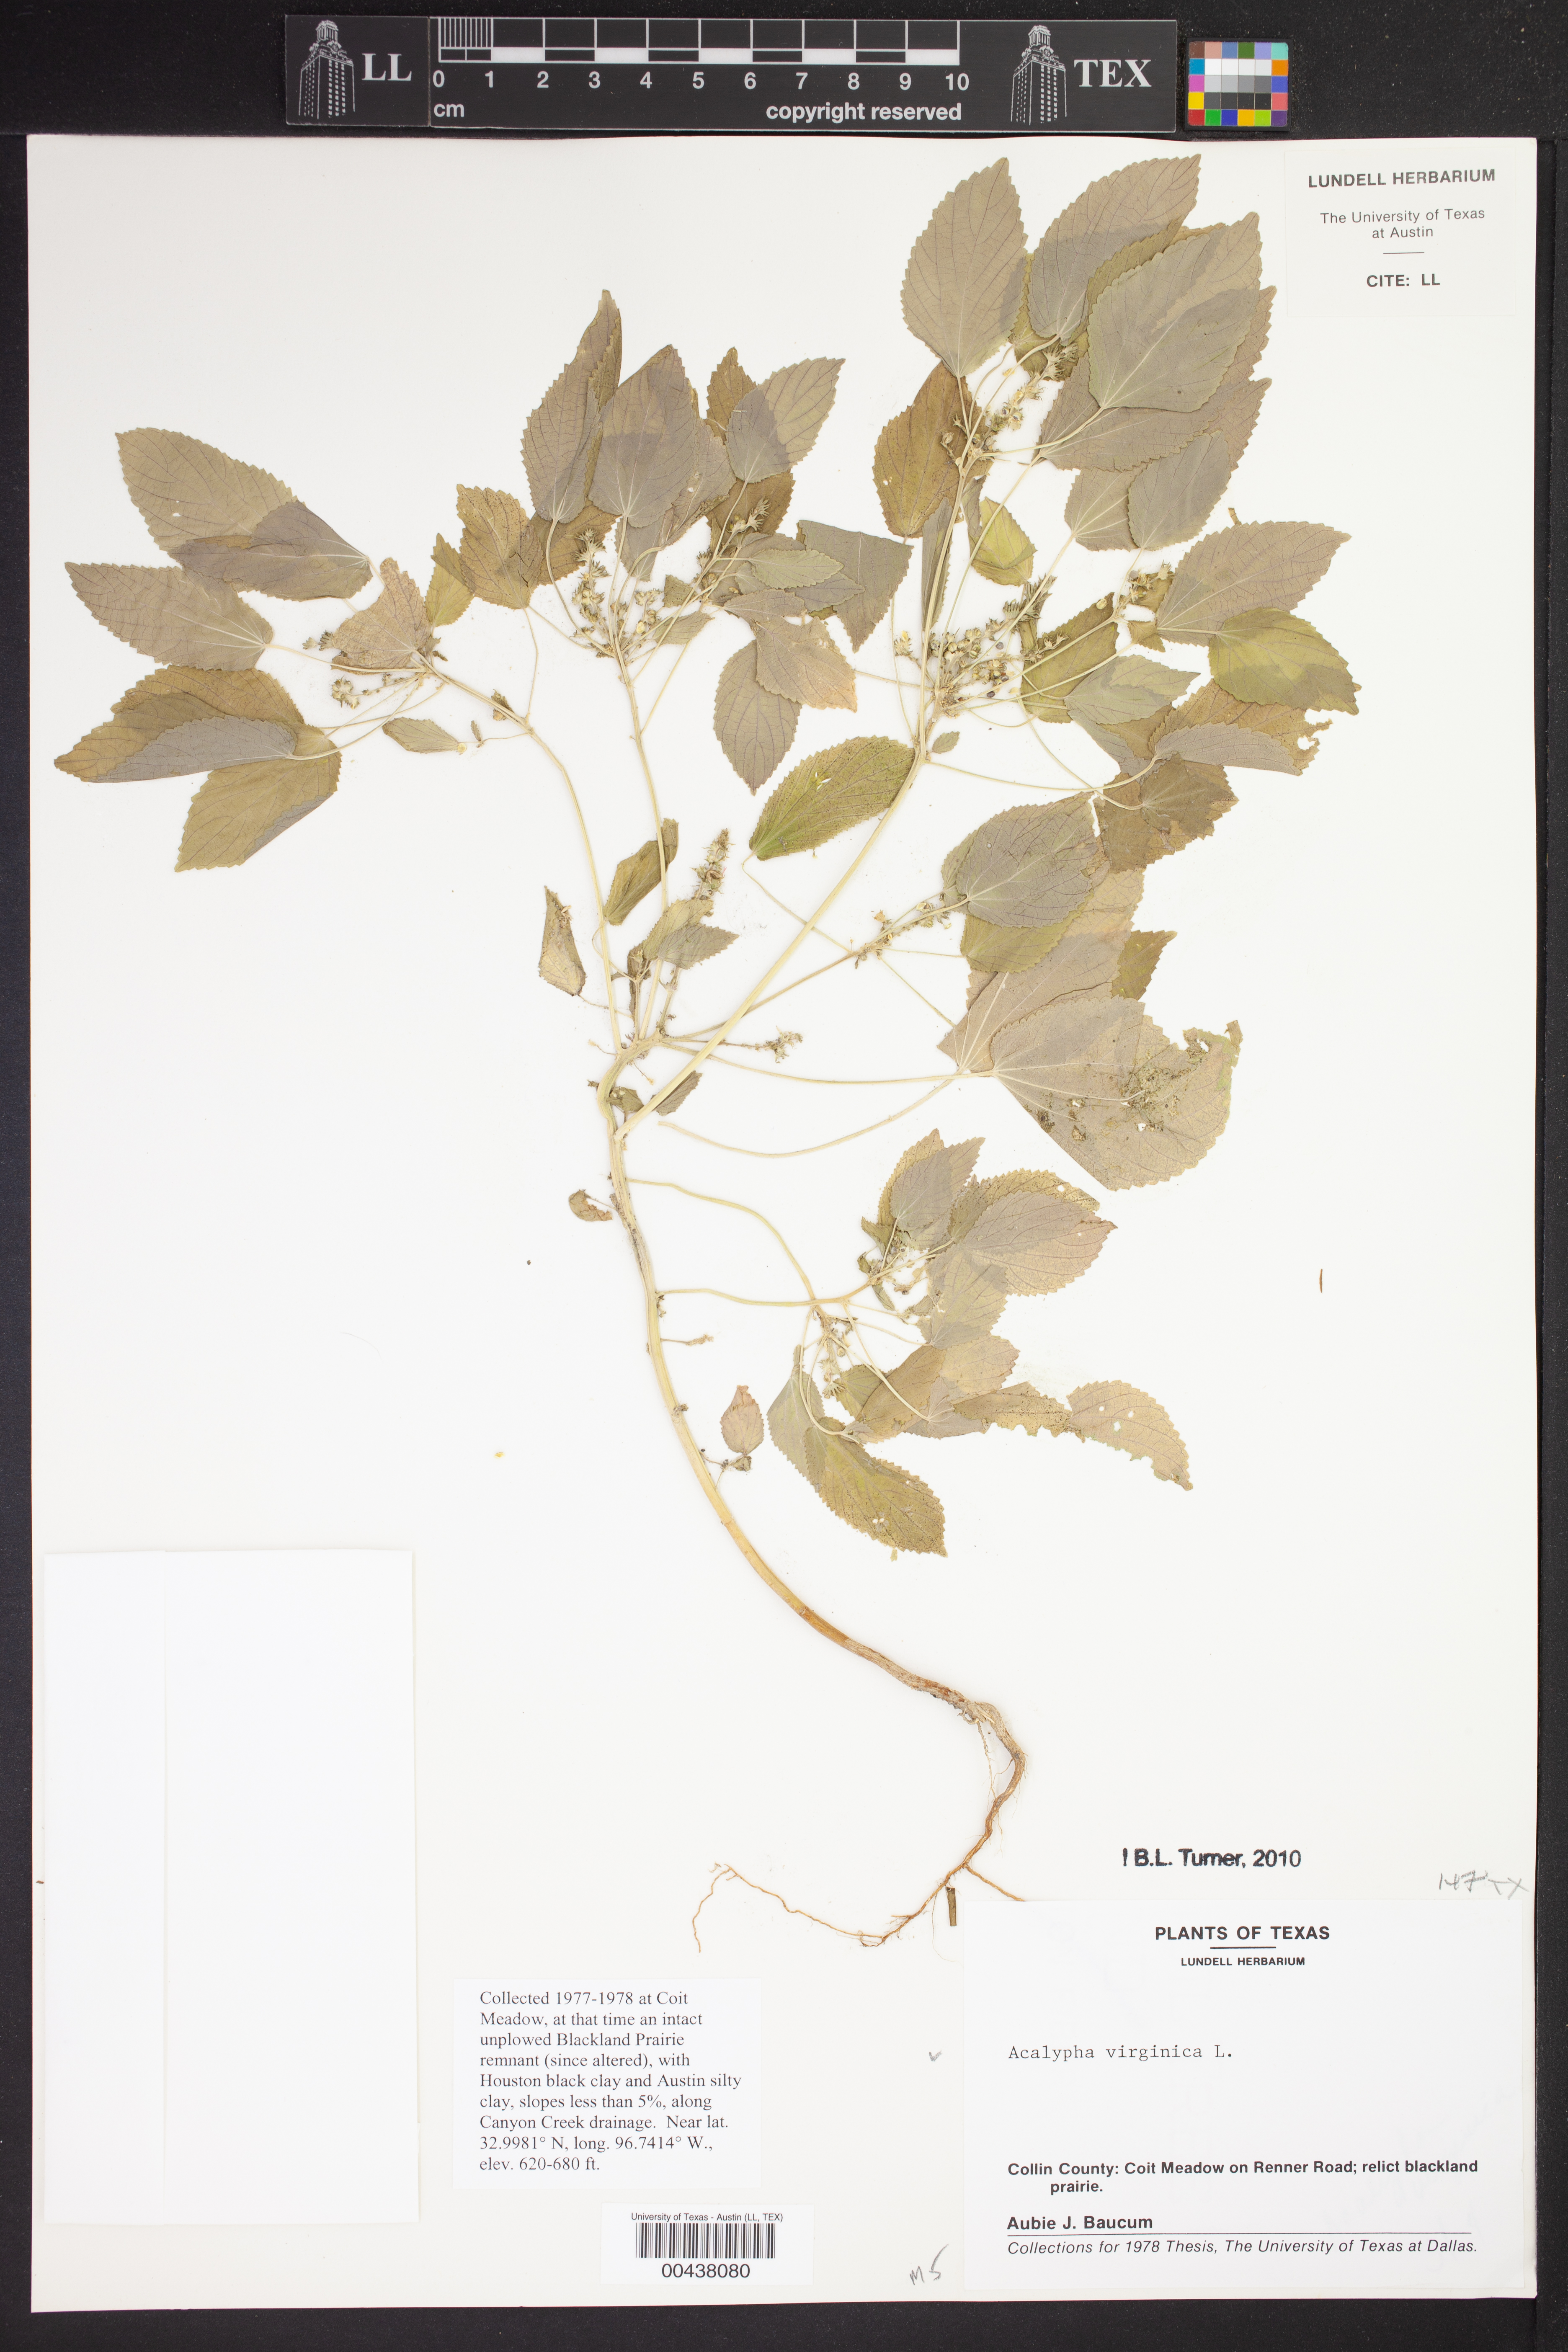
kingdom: Plantae
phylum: Tracheophyta
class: Magnoliopsida
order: Malpighiales
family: Euphorbiaceae
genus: Acalypha
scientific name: Acalypha virginica
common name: Virginia copperleaf
